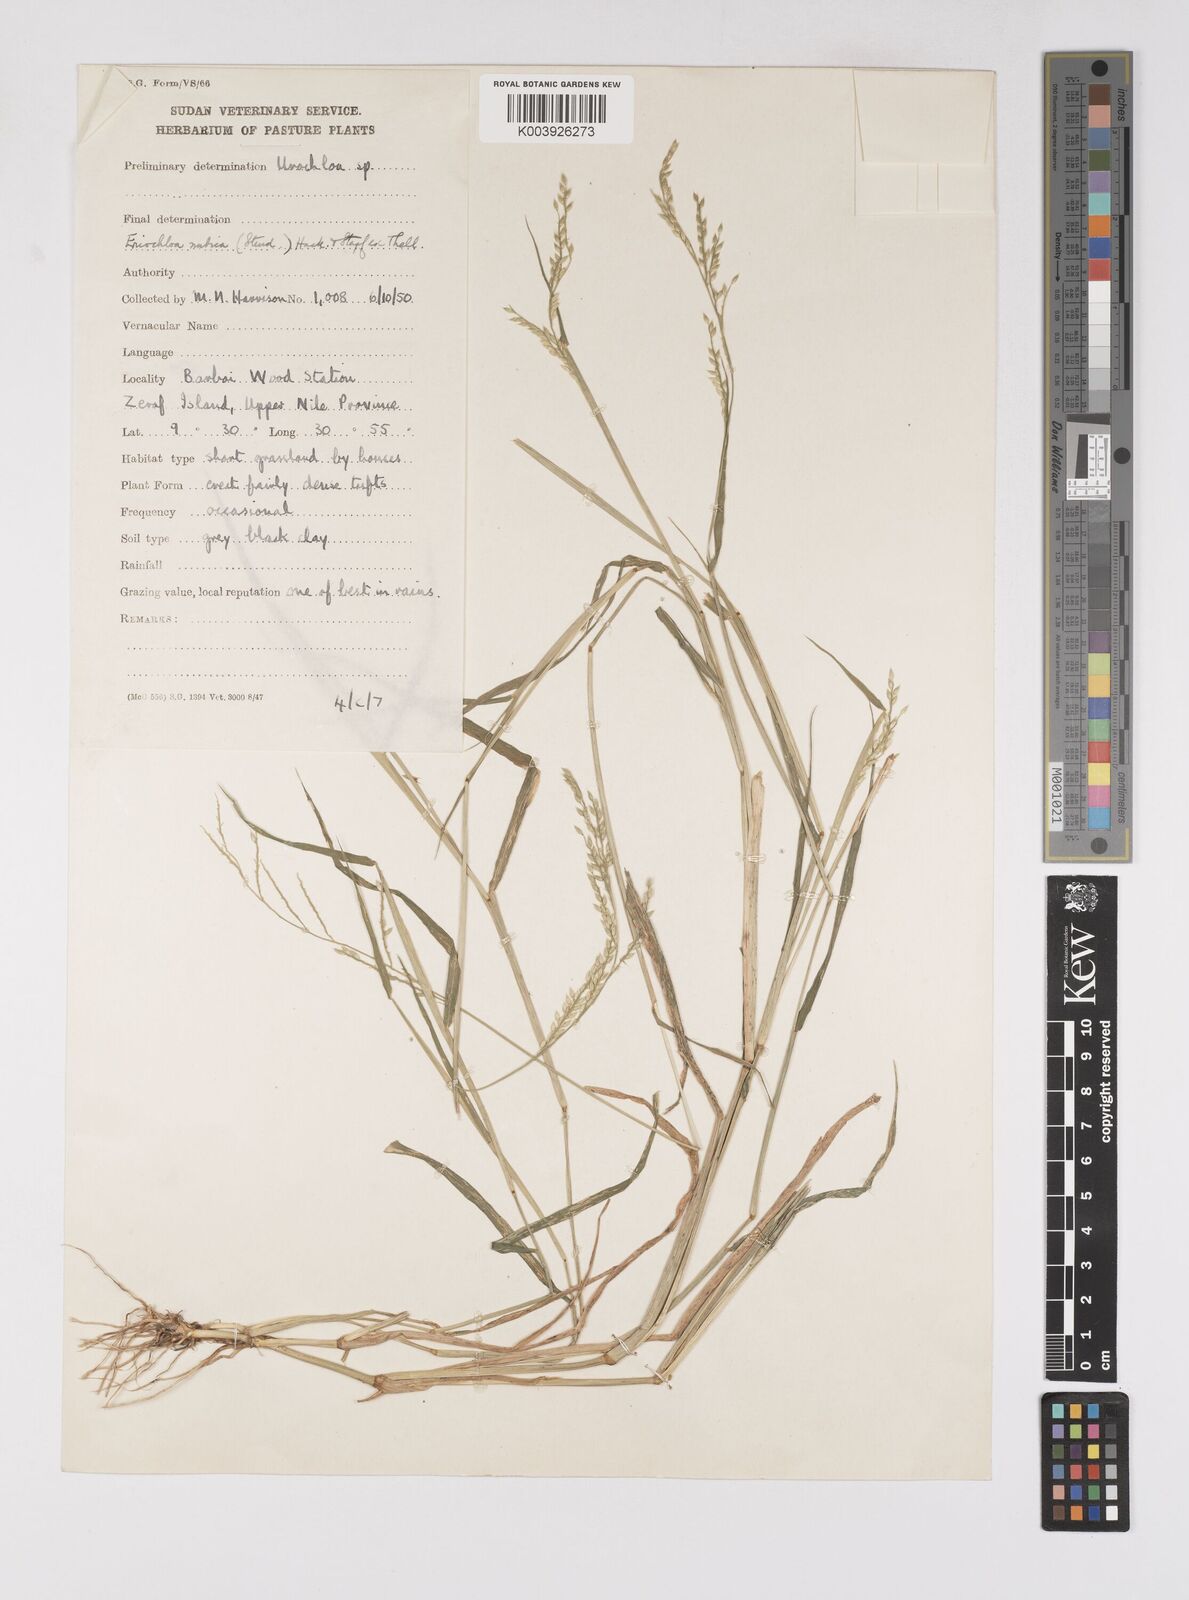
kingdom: Plantae
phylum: Tracheophyta
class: Liliopsida
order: Poales
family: Poaceae
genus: Eriochloa
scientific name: Eriochloa barbatus
